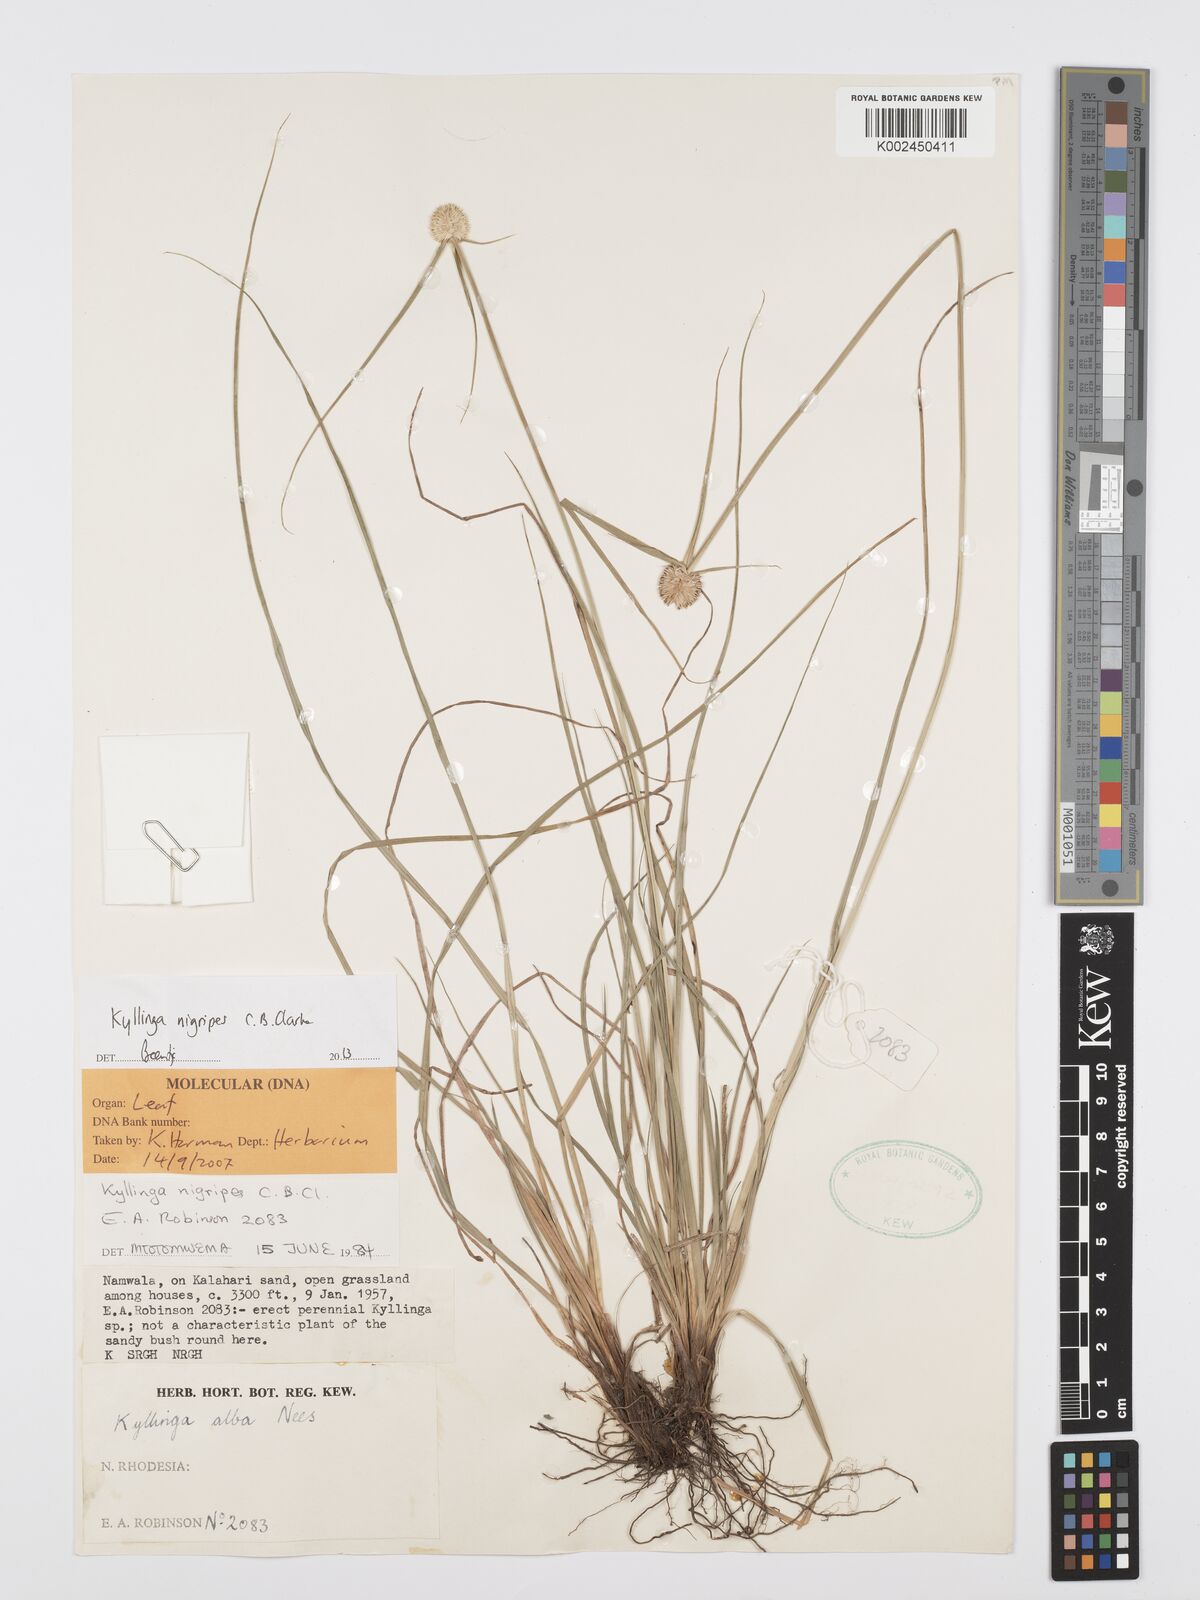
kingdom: Plantae
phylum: Tracheophyta
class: Liliopsida
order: Poales
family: Cyperaceae
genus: Cyperus
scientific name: Cyperus nigripes
